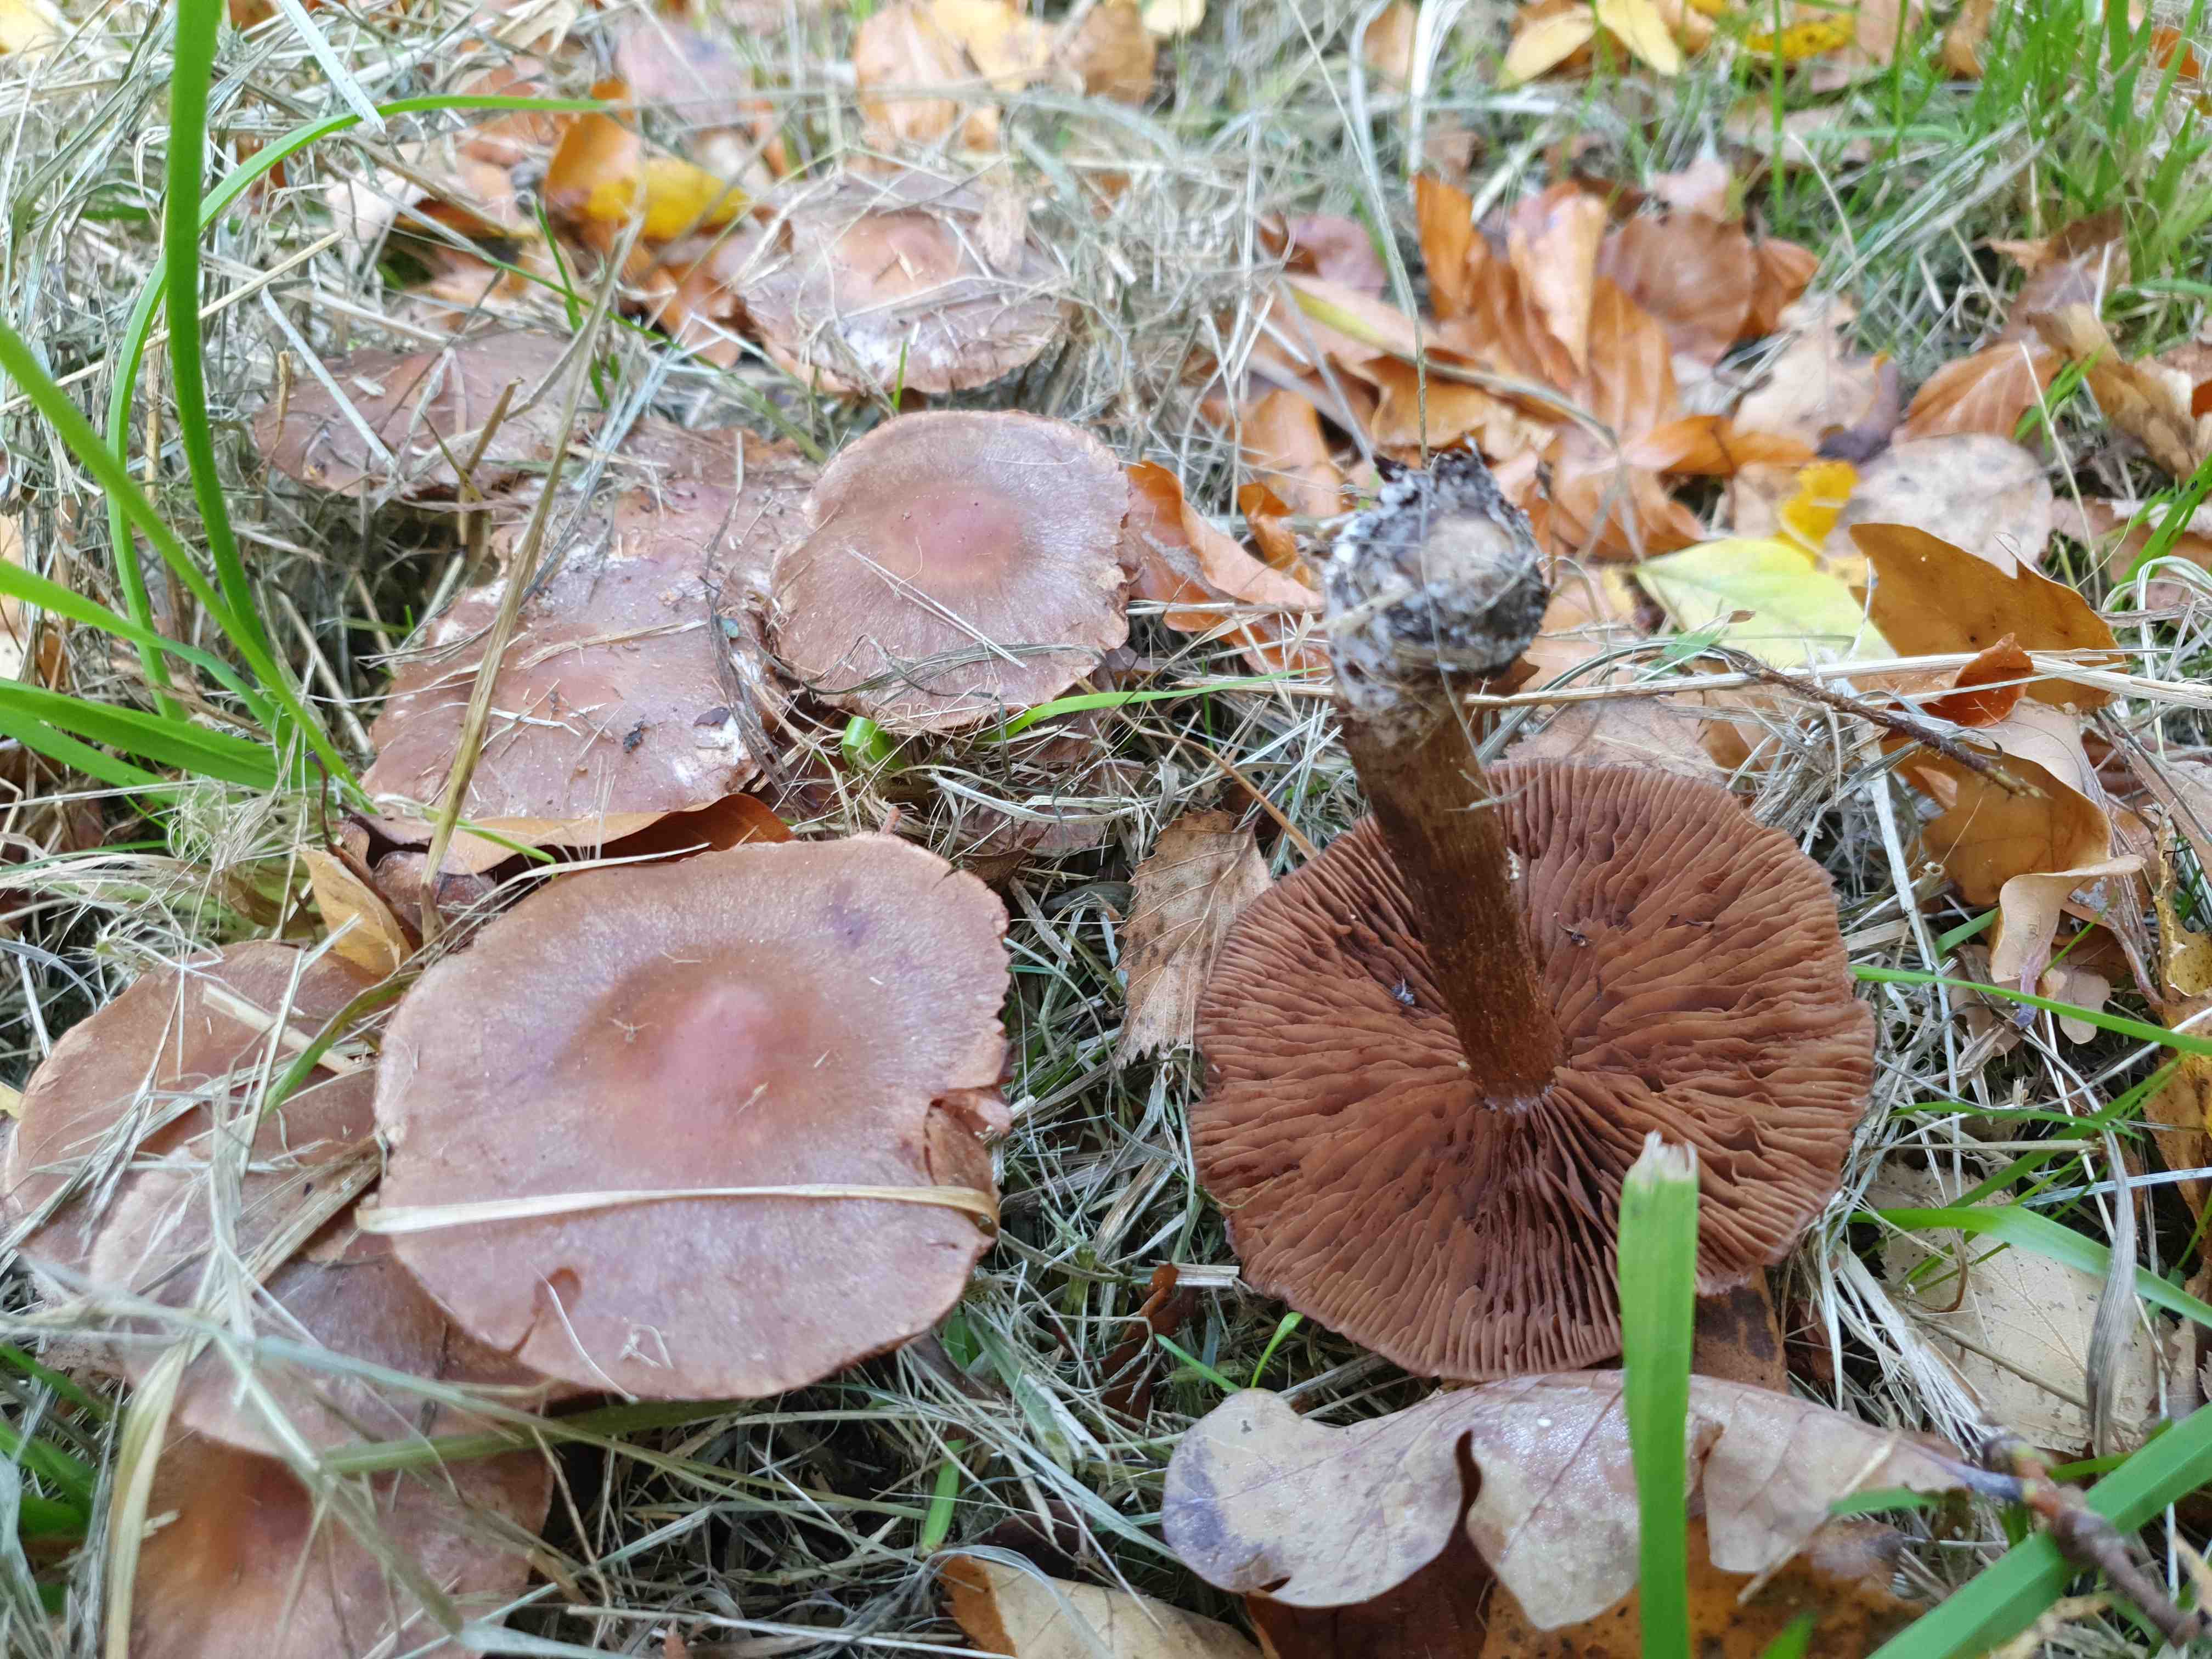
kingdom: Fungi
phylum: Basidiomycota
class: Agaricomycetes
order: Agaricales
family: Cortinariaceae
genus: Cortinarius
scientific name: Cortinarius
